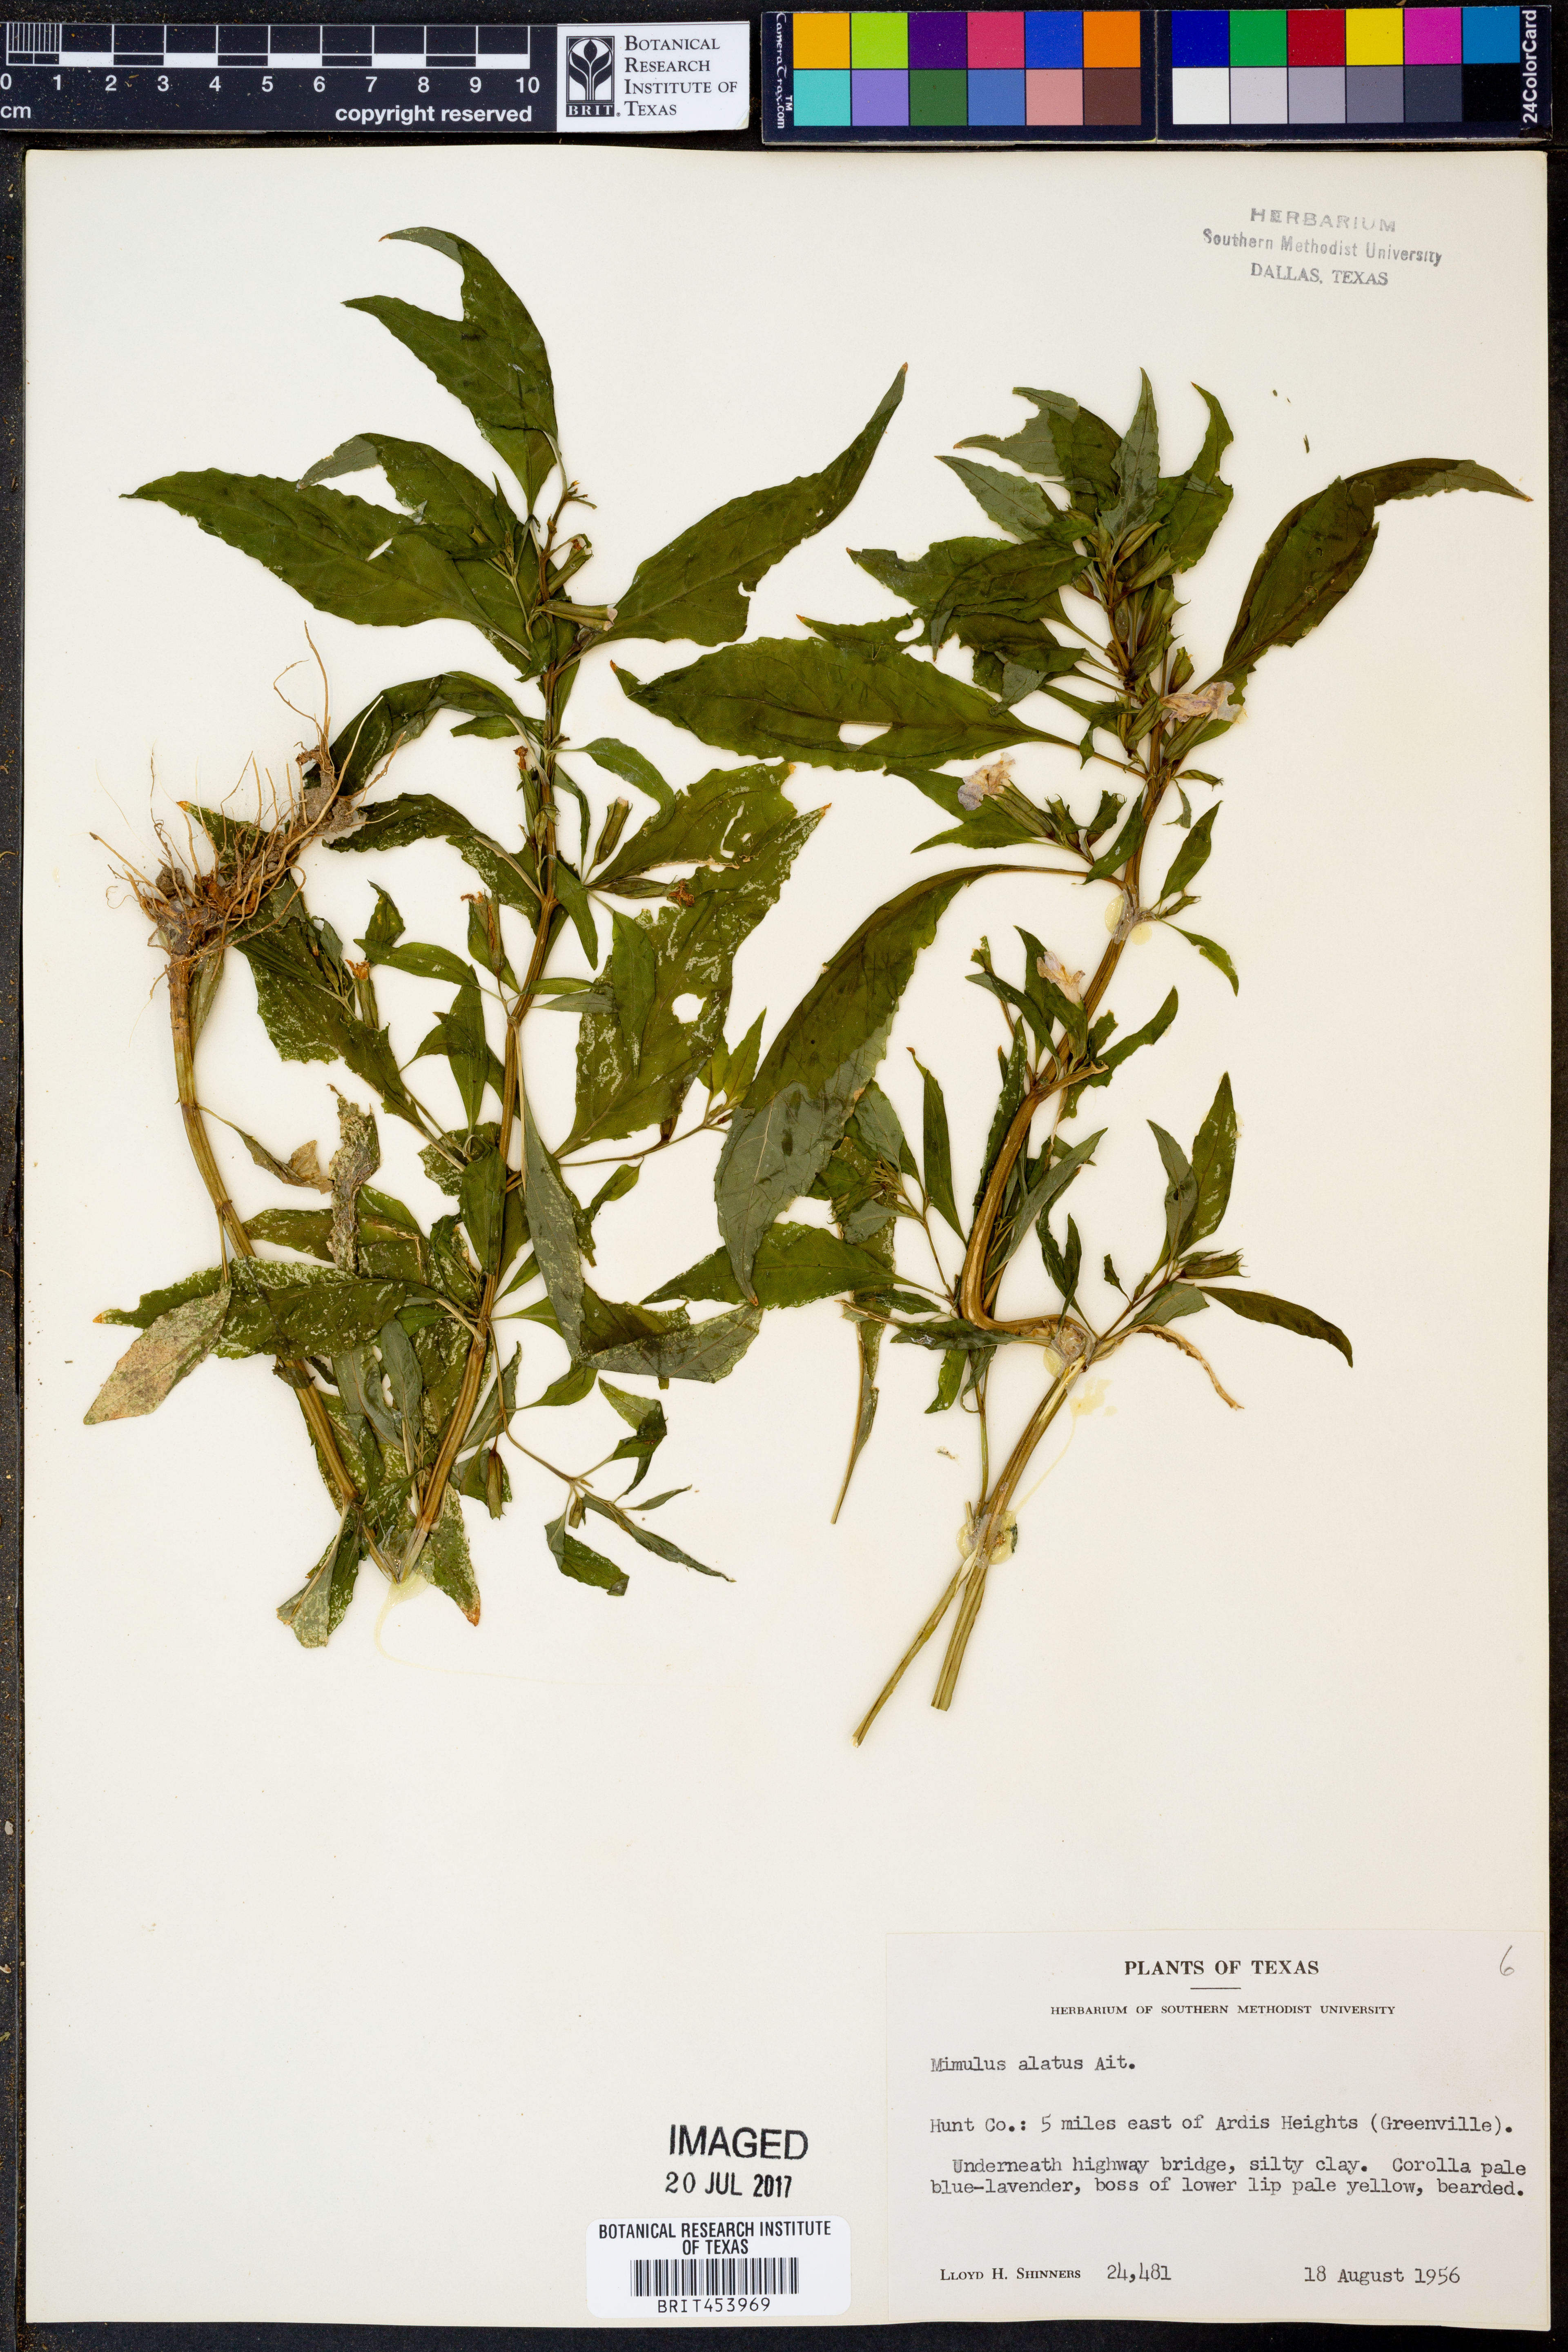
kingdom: Plantae
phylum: Tracheophyta
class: Magnoliopsida
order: Lamiales
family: Phrymaceae
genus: Mimulus
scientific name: Mimulus alatus
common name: Sharp-wing monkey-flower
